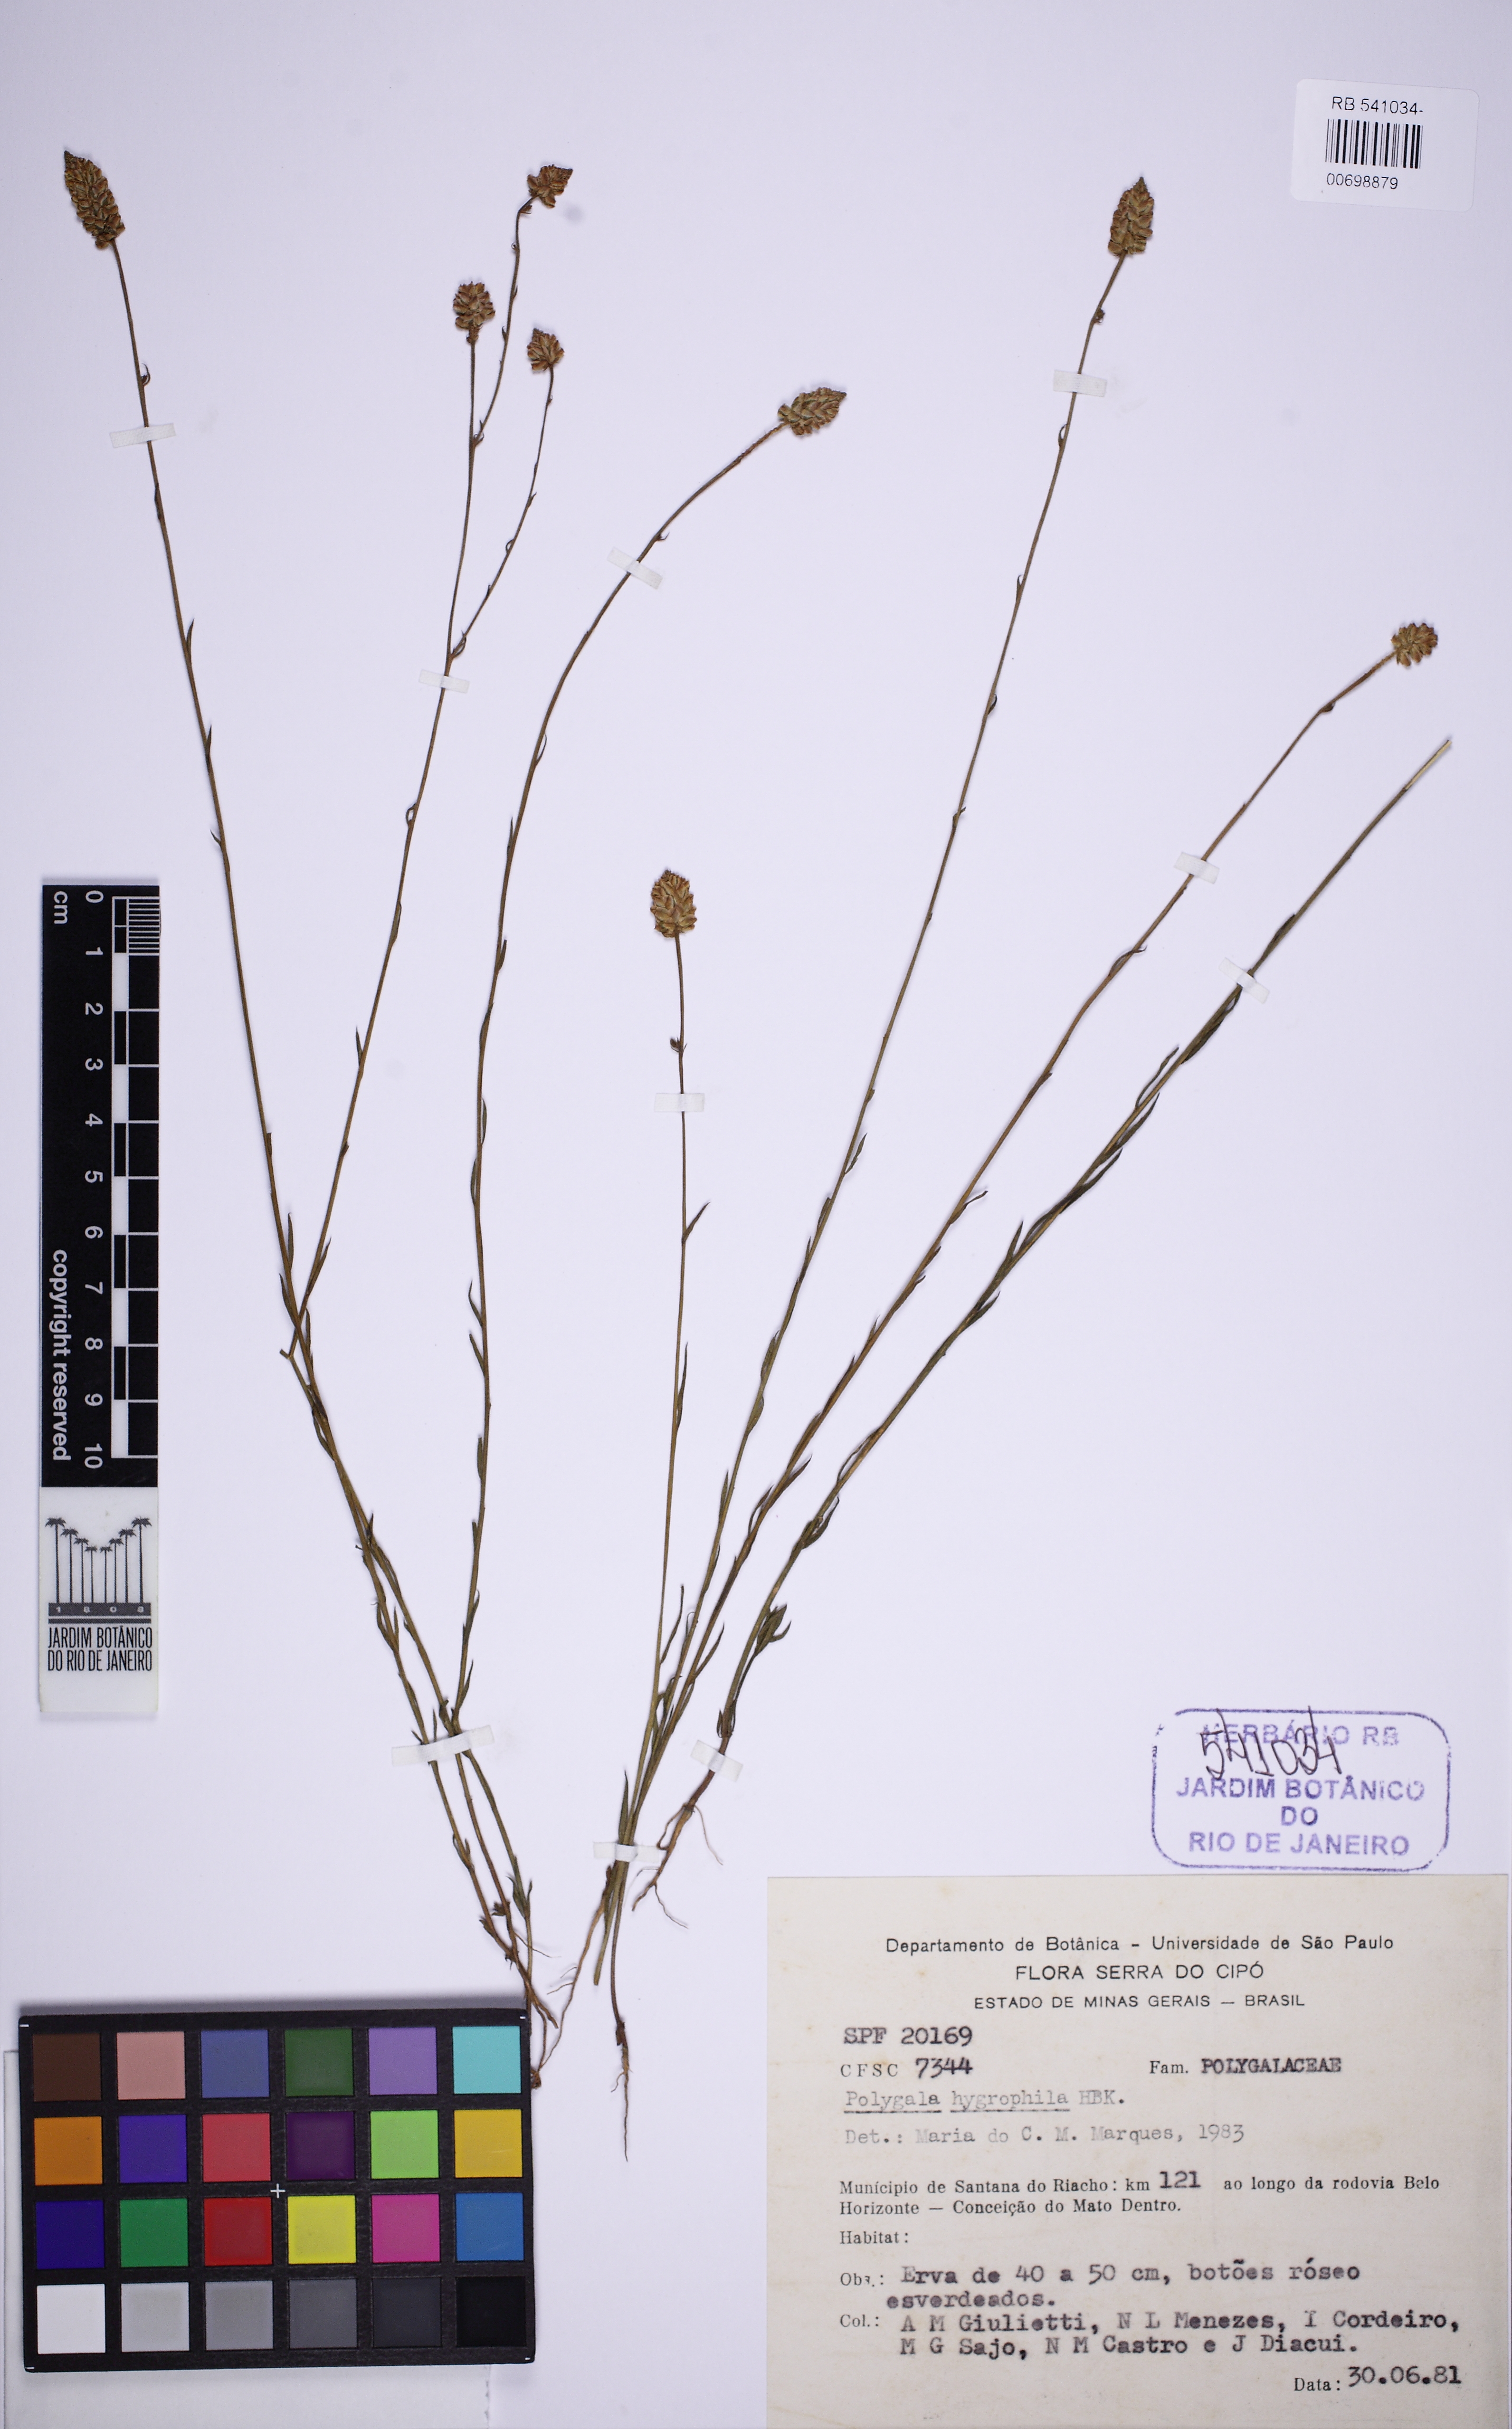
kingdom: Plantae
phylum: Tracheophyta
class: Magnoliopsida
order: Fabales
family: Polygalaceae
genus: Polygala
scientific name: Polygala hygrophila
